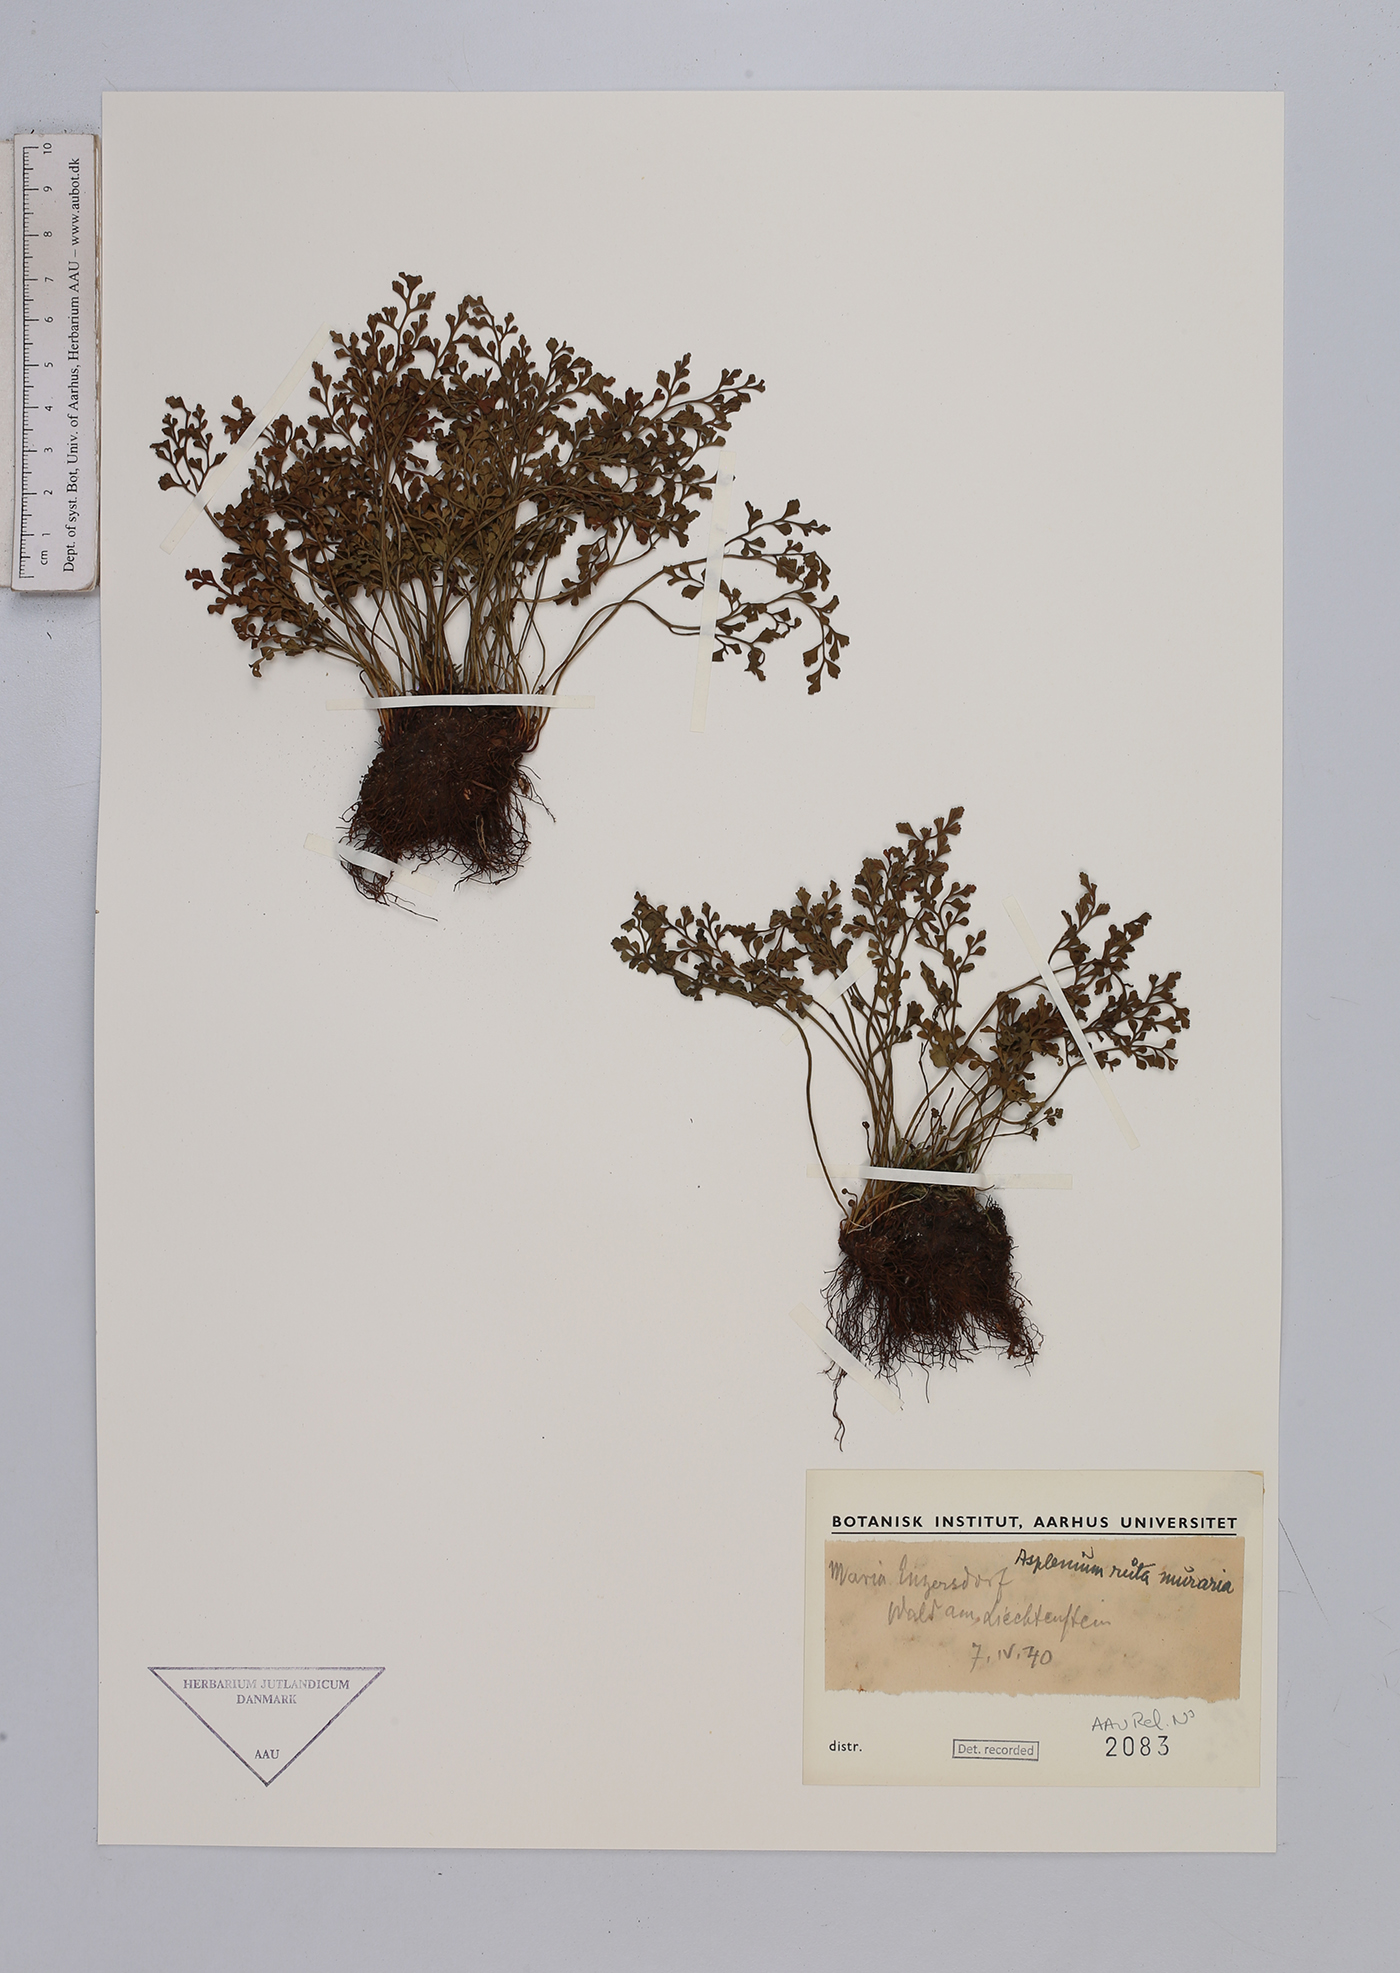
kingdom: Plantae
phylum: Tracheophyta
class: Polypodiopsida
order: Polypodiales
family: Aspleniaceae
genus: Asplenium
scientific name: Asplenium ruta-muraria
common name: Wall-rue
